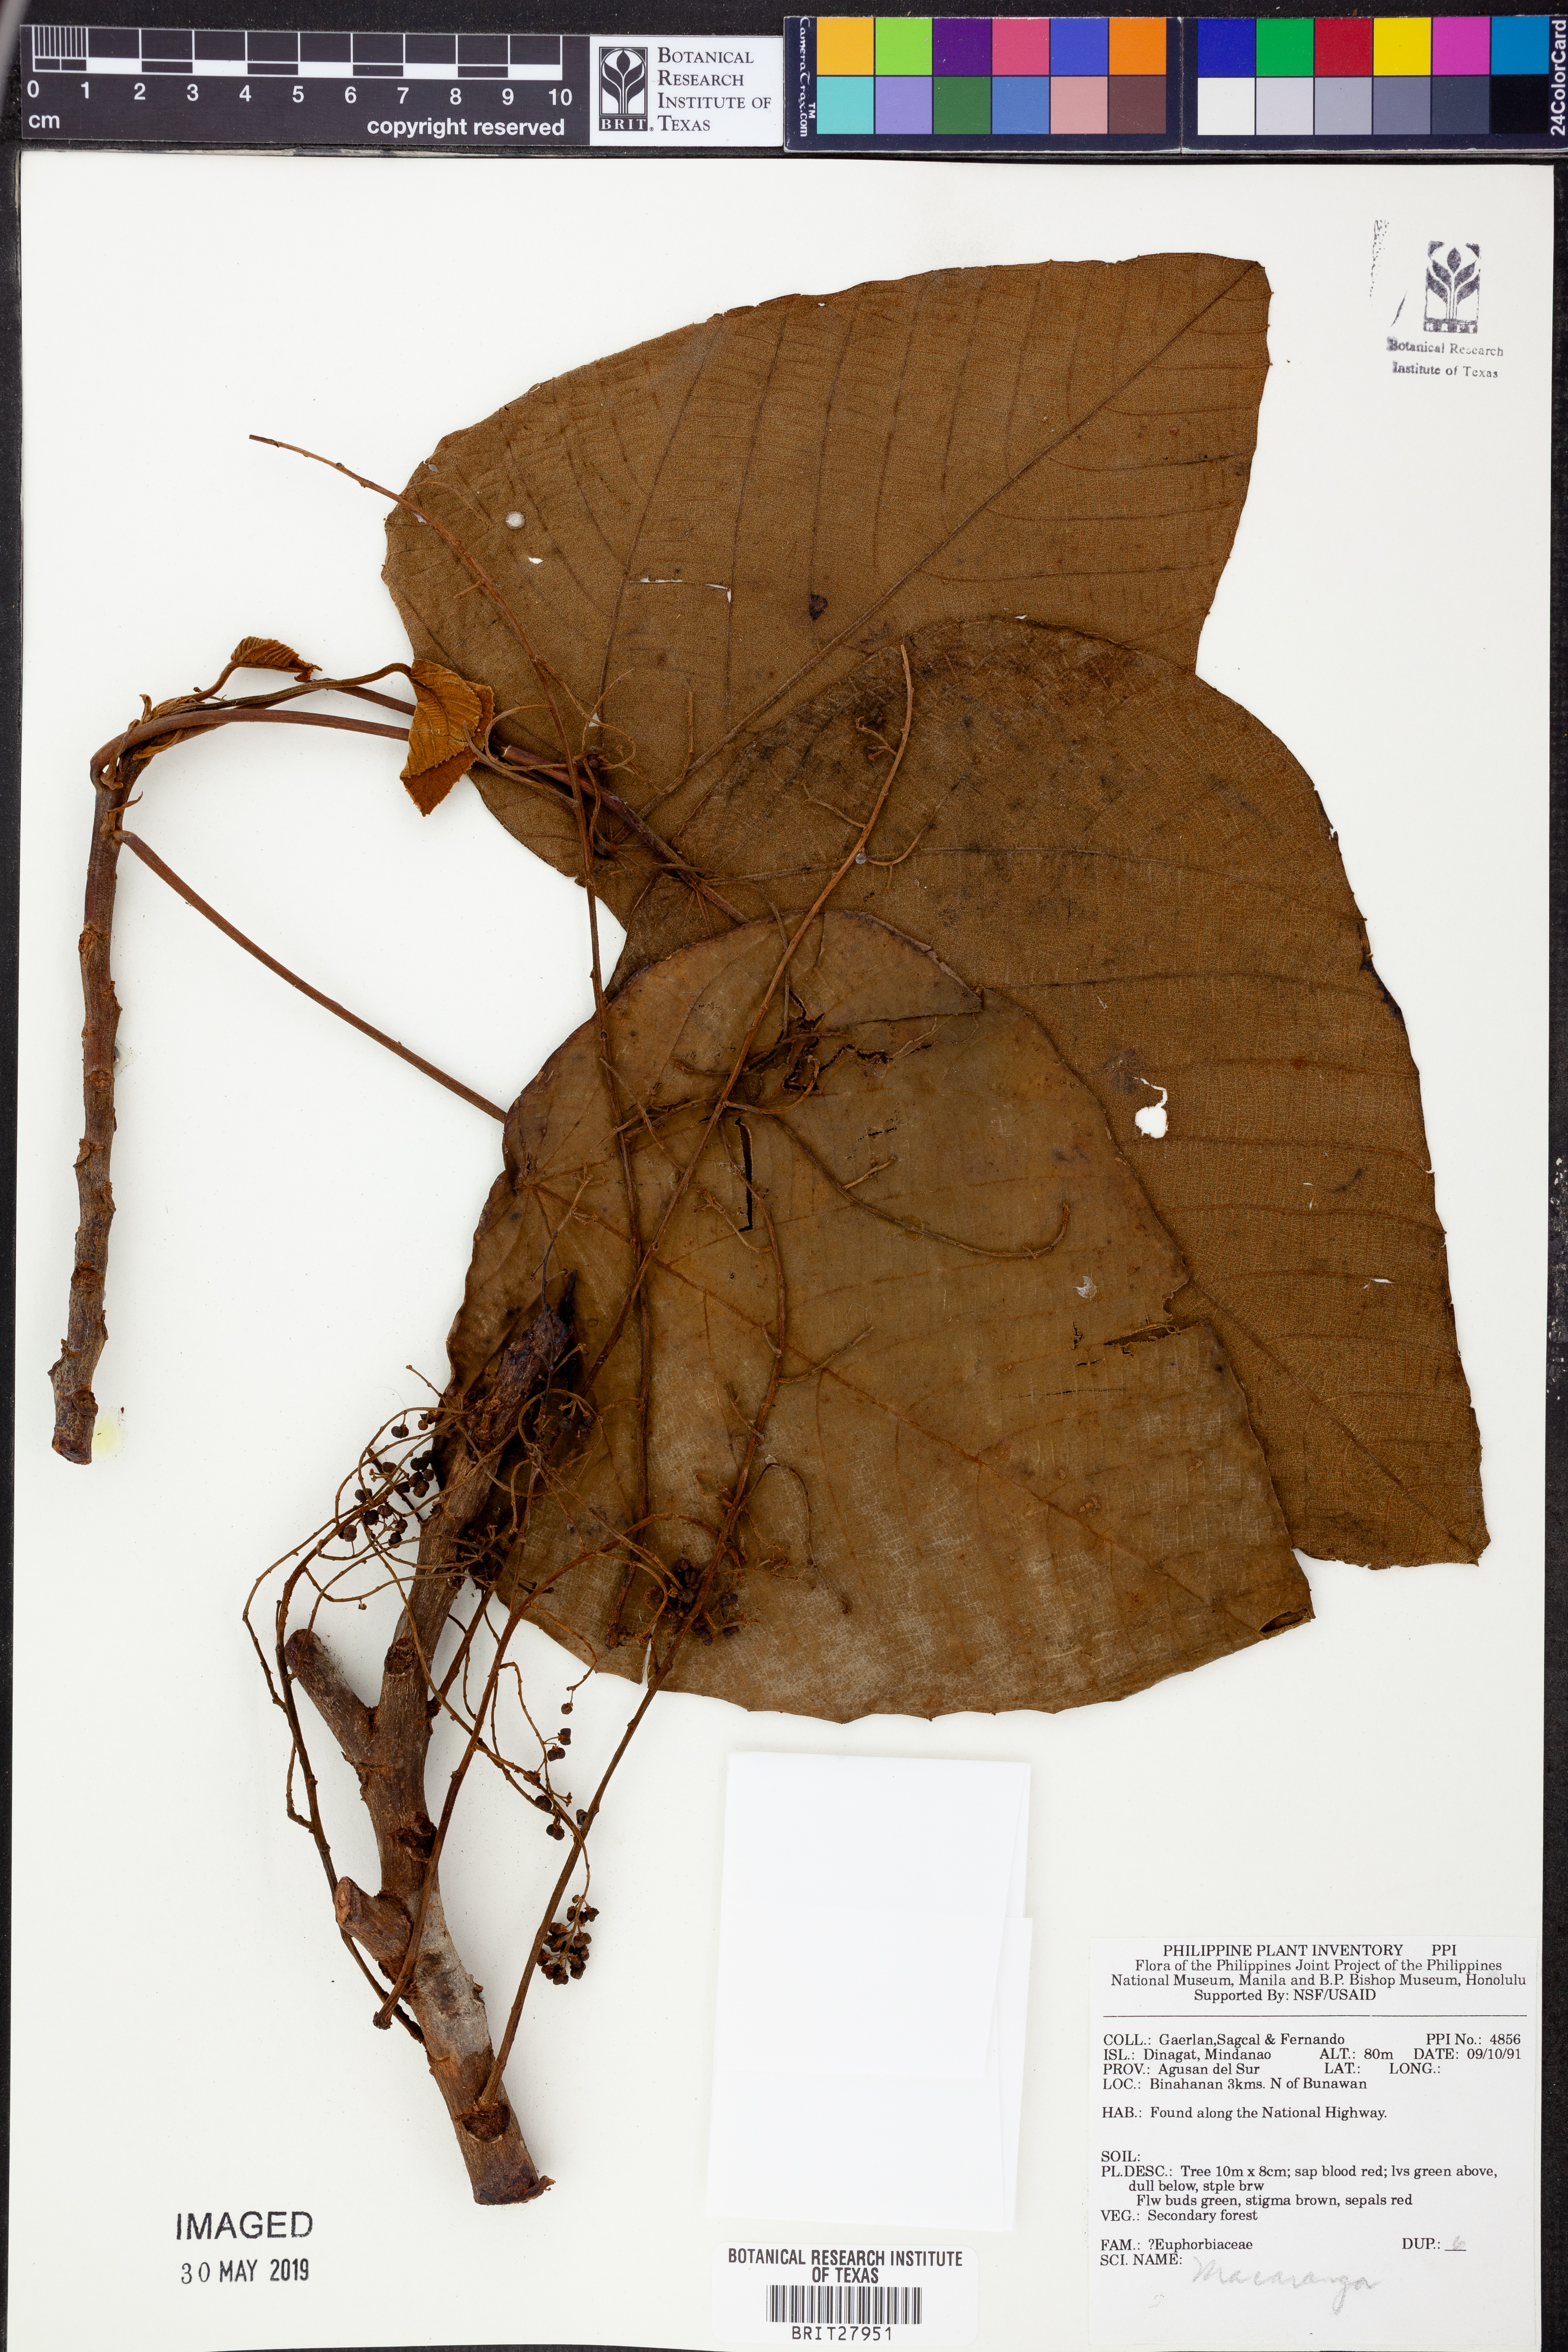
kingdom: Plantae
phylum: Tracheophyta
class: Magnoliopsida
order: Malpighiales
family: Euphorbiaceae
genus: Macaranga
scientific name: Macaranga
